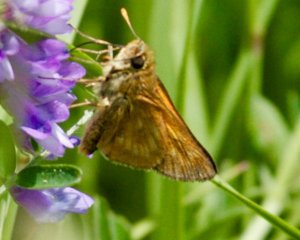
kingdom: Animalia
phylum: Arthropoda
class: Insecta
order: Lepidoptera
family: Hesperiidae
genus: Polites
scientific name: Polites
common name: Long Dash Skipper
